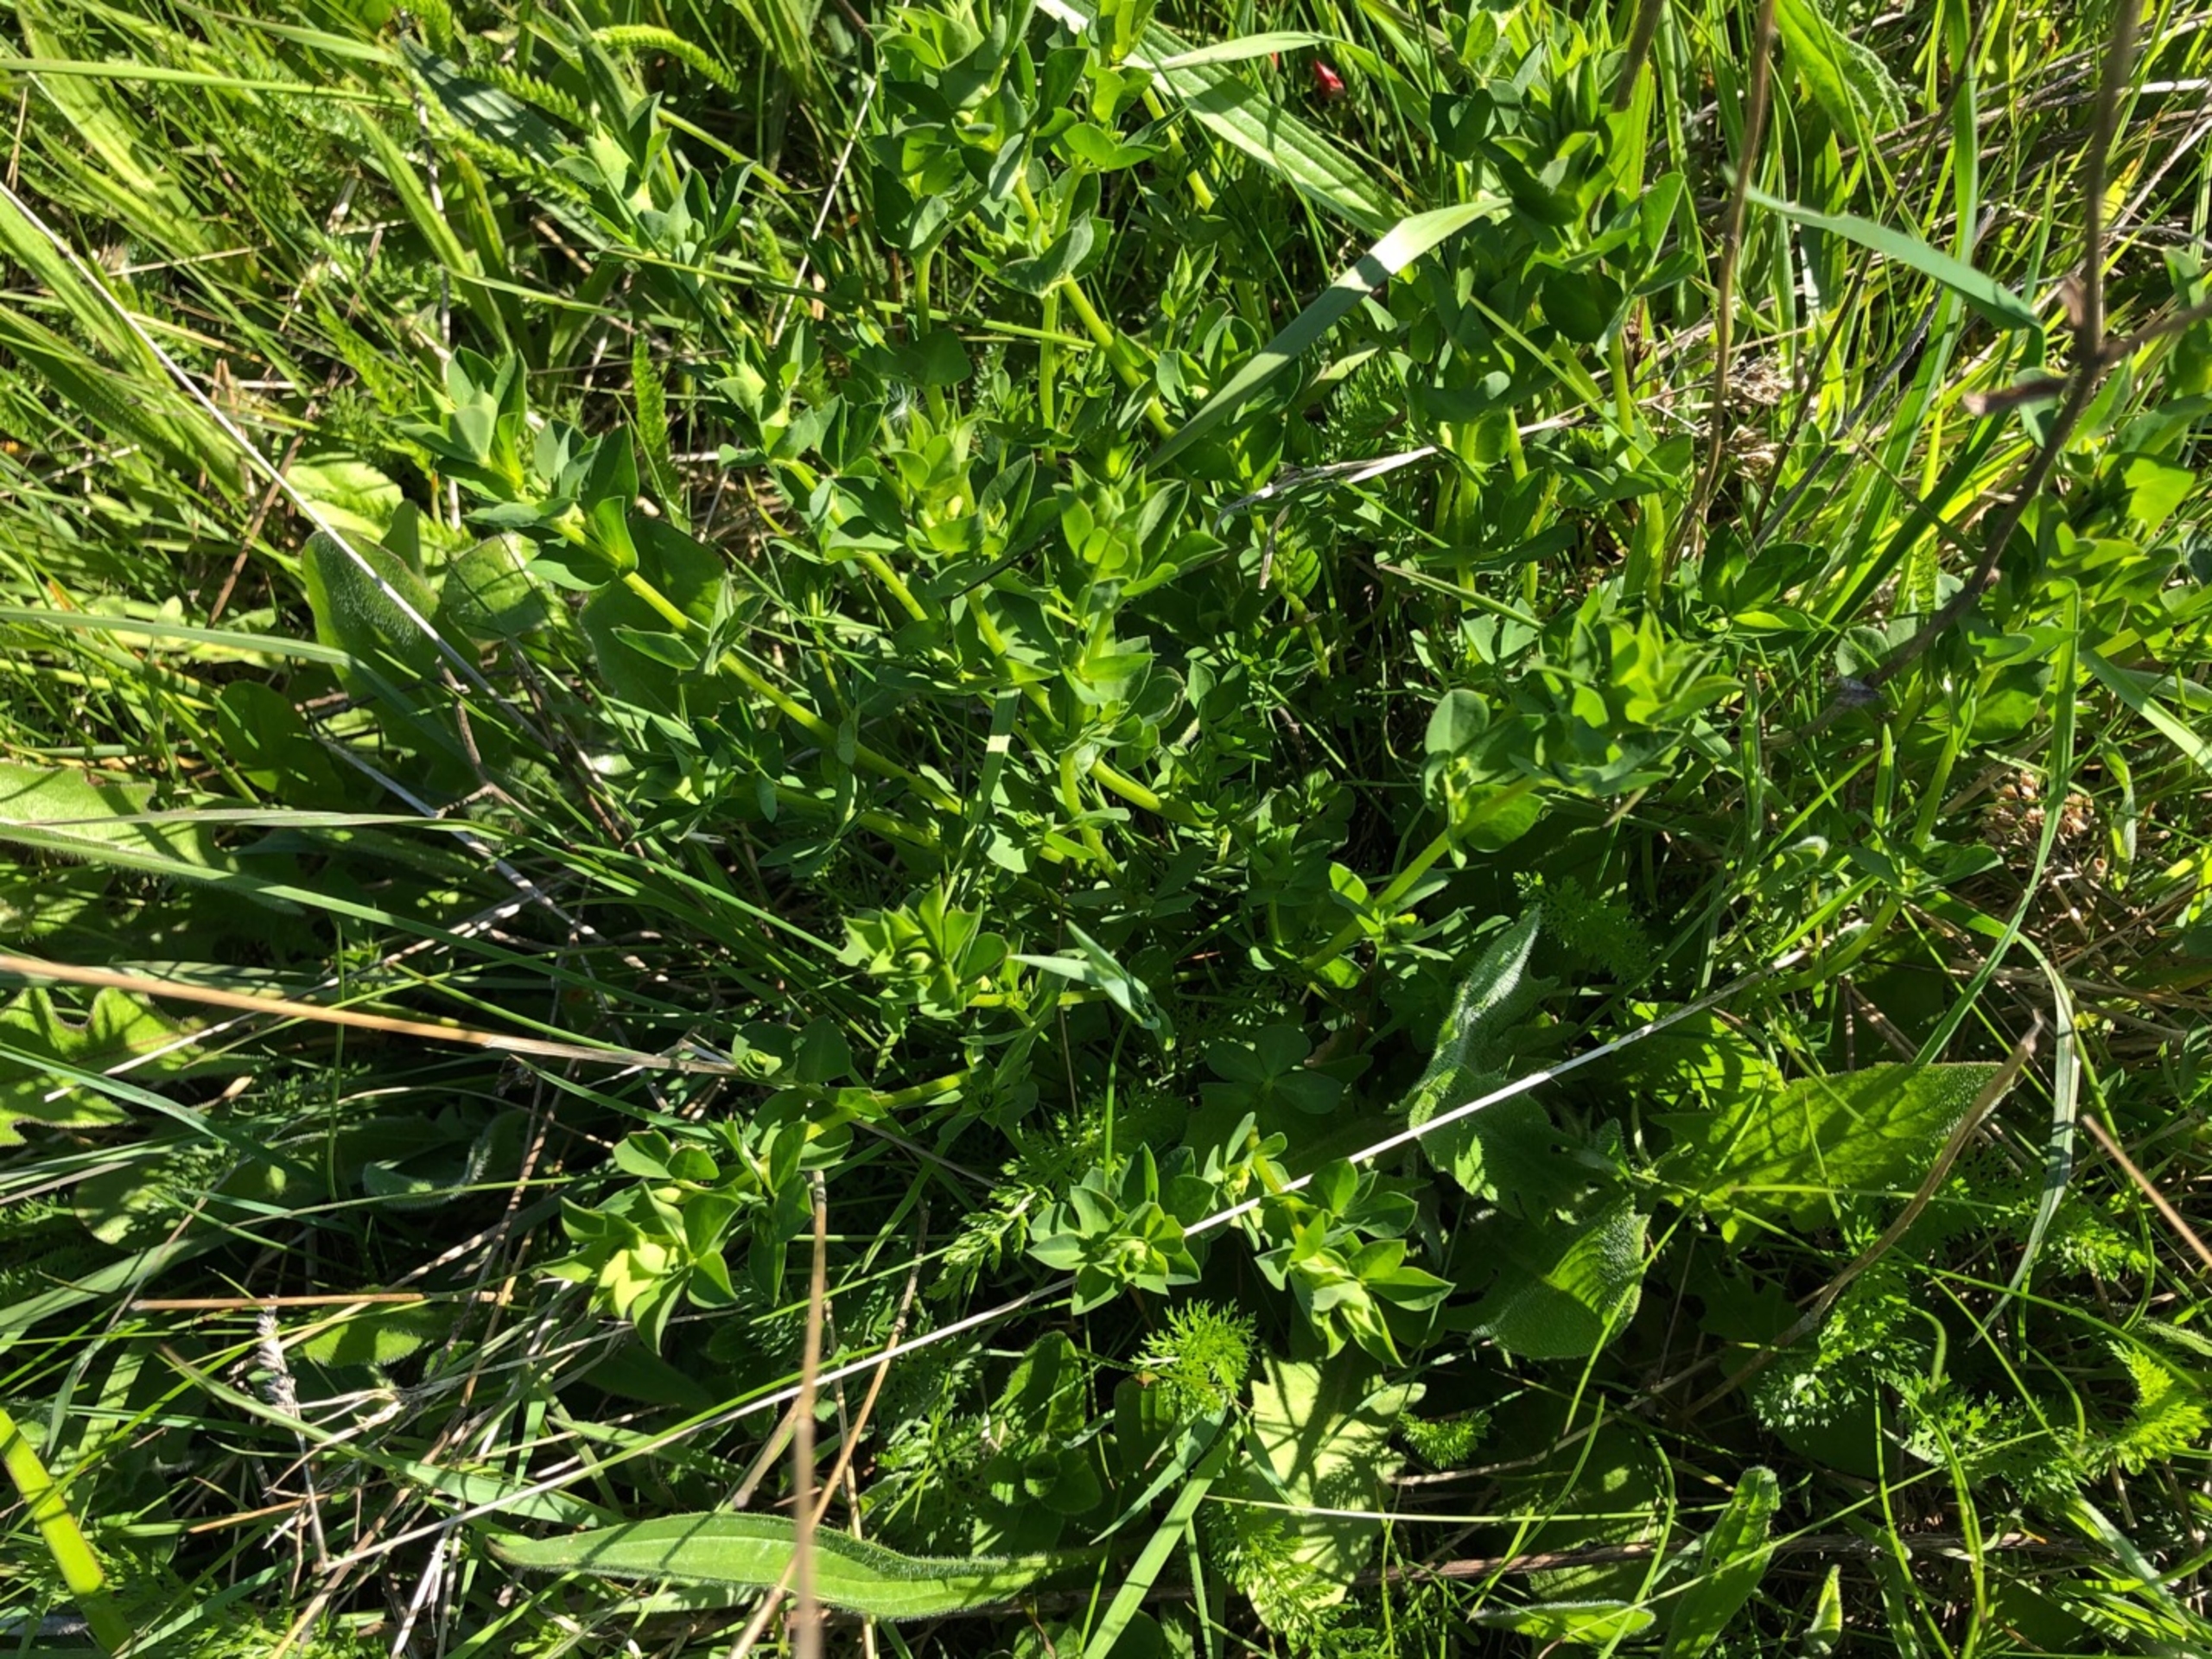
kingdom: Plantae
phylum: Tracheophyta
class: Magnoliopsida
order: Fabales
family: Fabaceae
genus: Lotus
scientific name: Lotus corniculatus
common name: Almindelig kællingetand
